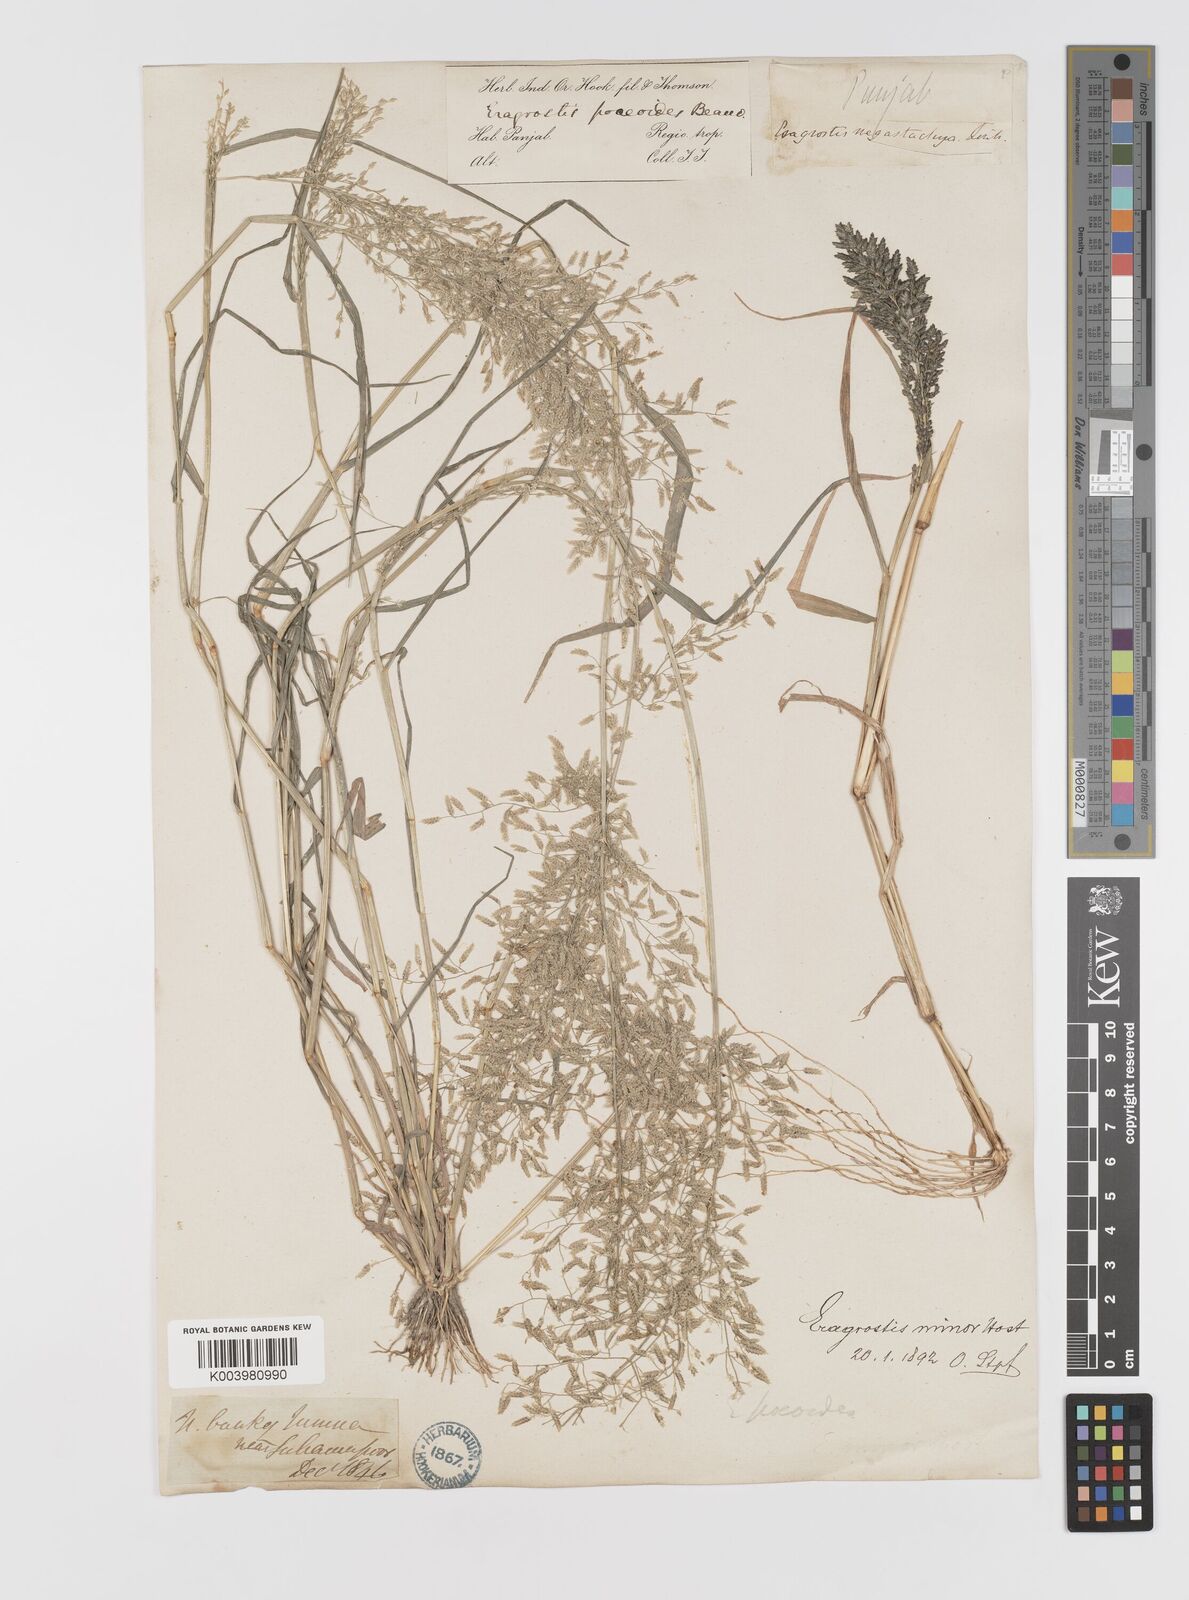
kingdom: Plantae
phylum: Tracheophyta
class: Liliopsida
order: Poales
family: Poaceae
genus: Eragrostis
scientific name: Eragrostis minor
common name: Small love-grass
